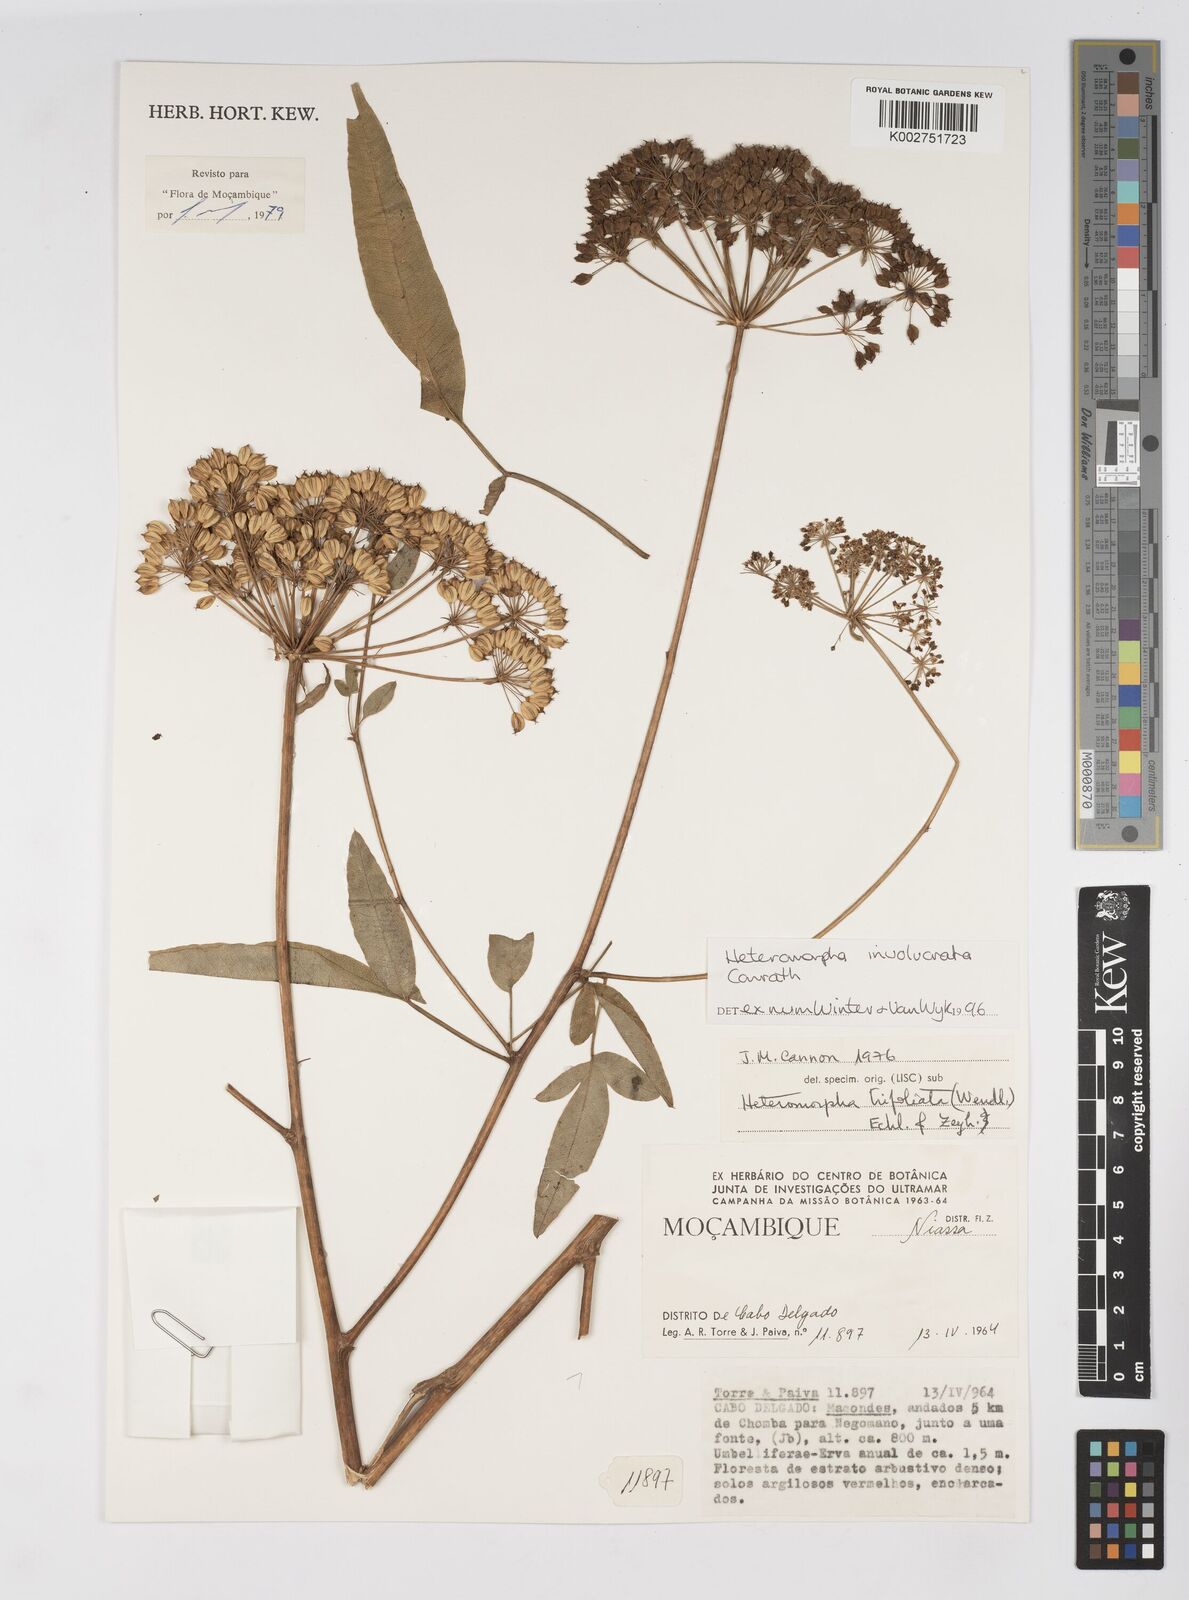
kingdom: Plantae
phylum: Tracheophyta
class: Magnoliopsida
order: Apiales
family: Apiaceae
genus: Heteromorpha
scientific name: Heteromorpha involucrata
